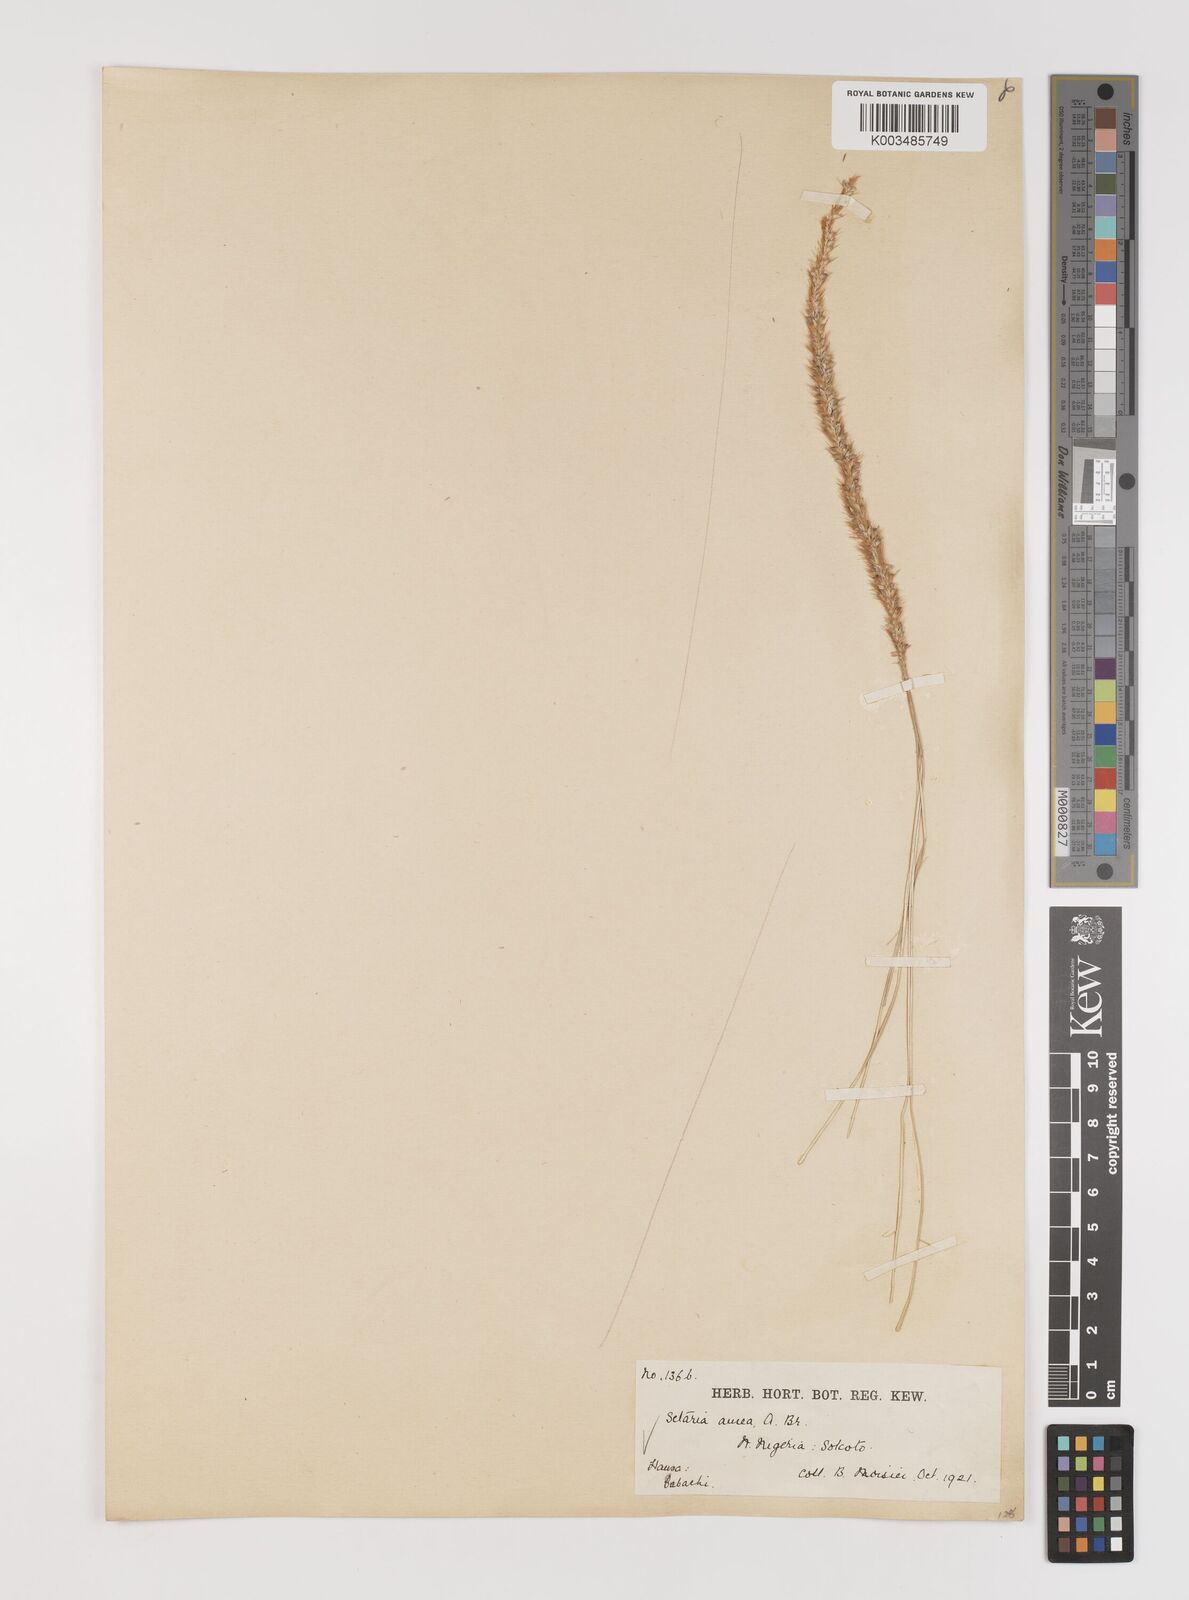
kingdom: Plantae
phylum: Tracheophyta
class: Liliopsida
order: Poales
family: Poaceae
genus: Setaria
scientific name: Setaria sphacelata
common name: African bristlegrass
